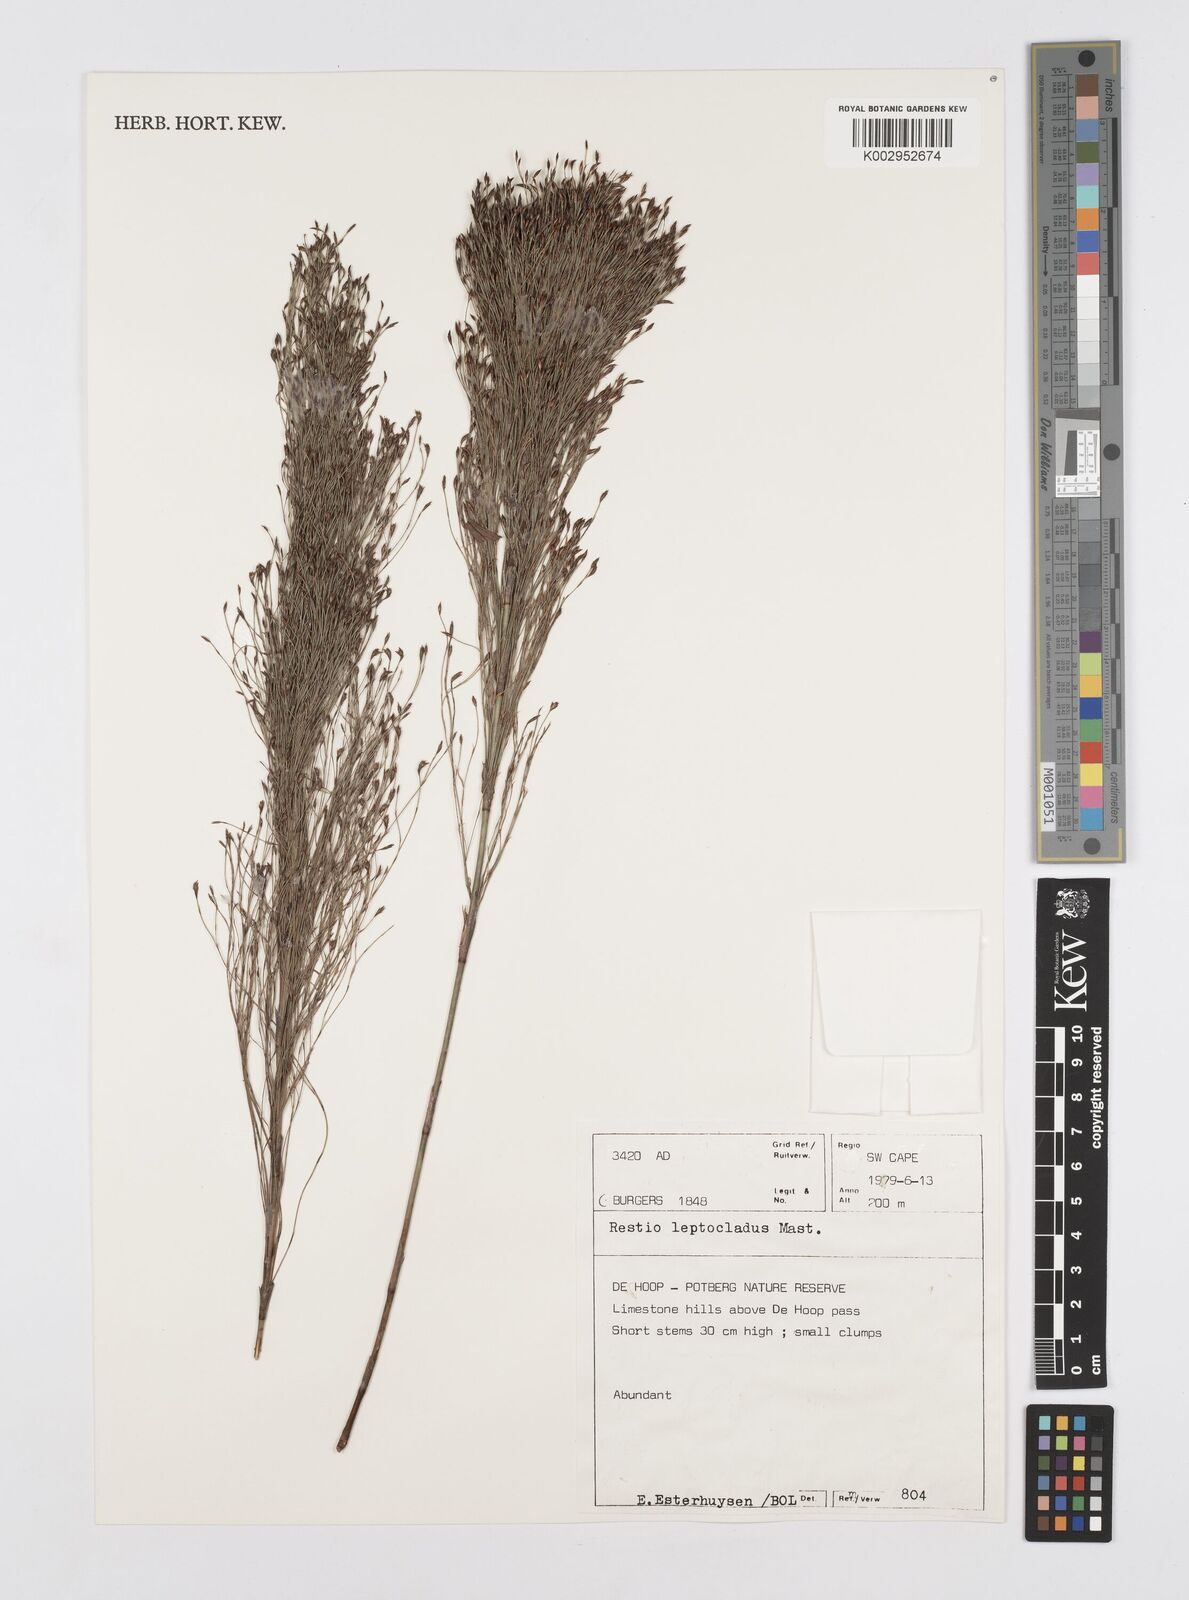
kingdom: Plantae
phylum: Tracheophyta
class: Liliopsida
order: Poales
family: Restionaceae
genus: Restio
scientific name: Restio leptoclados
